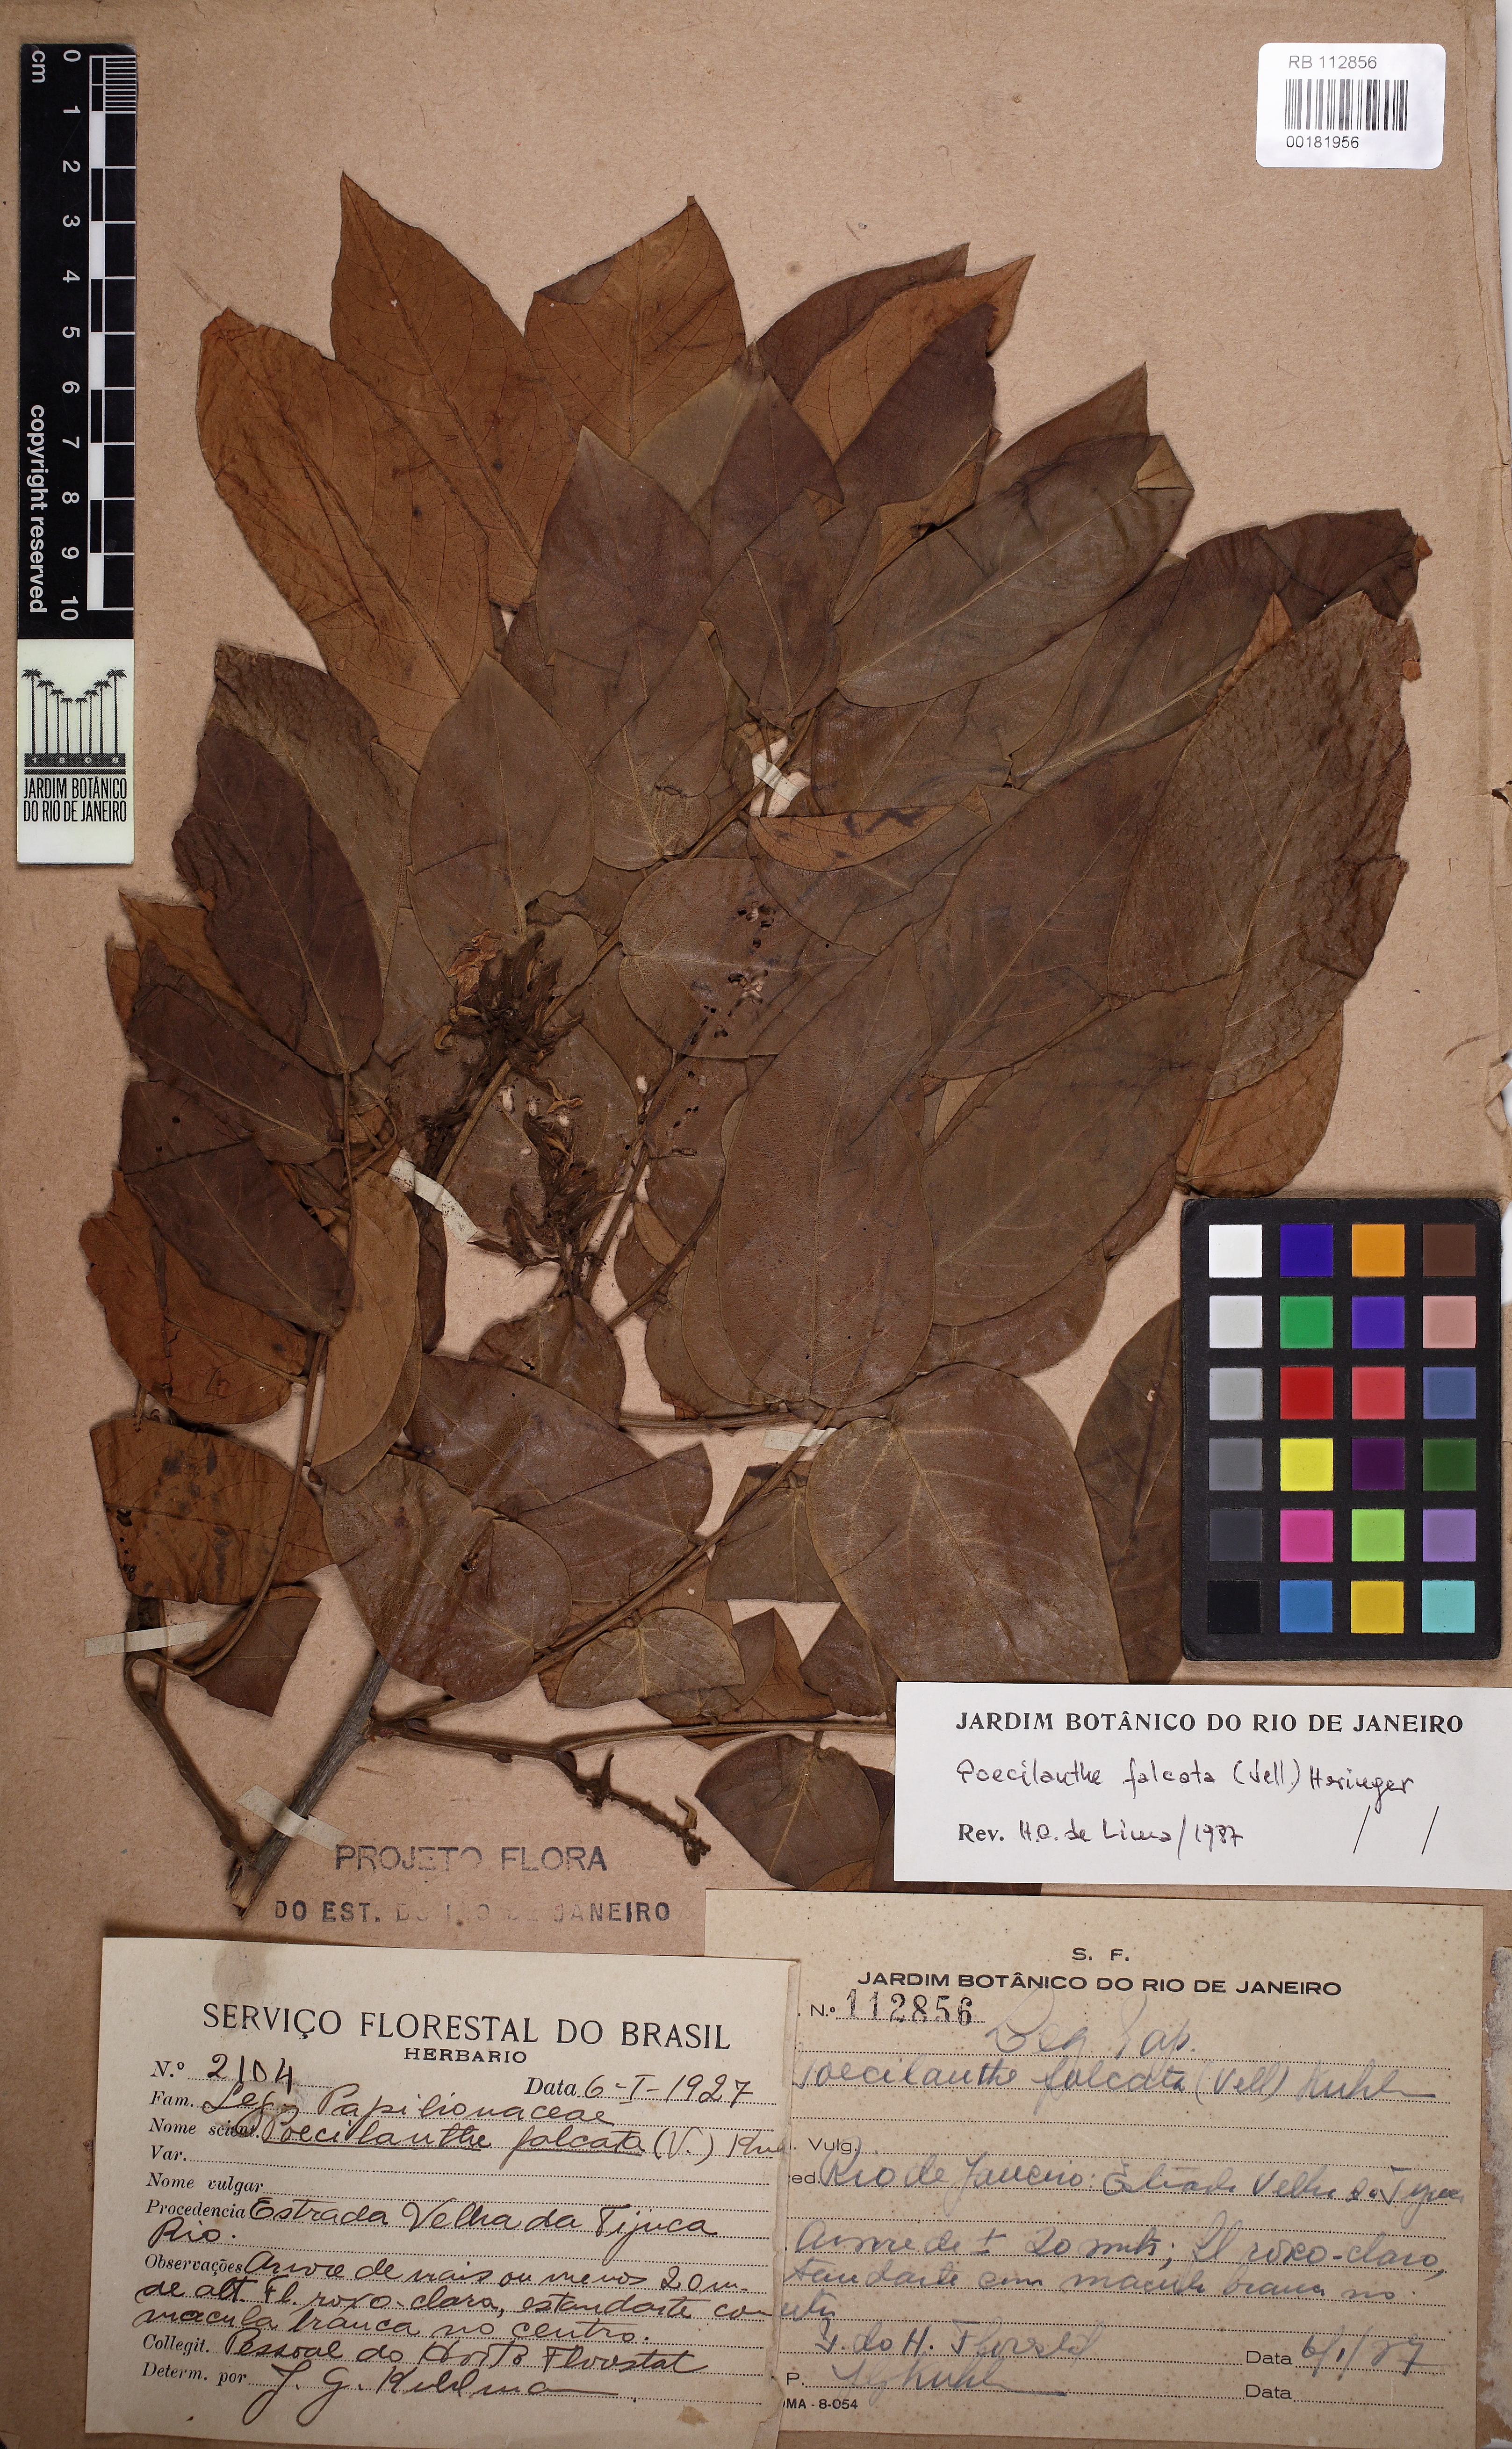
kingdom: Plantae
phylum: Tracheophyta
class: Magnoliopsida
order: Fabales
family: Fabaceae
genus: Poecilanthe
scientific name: Poecilanthe falcata
